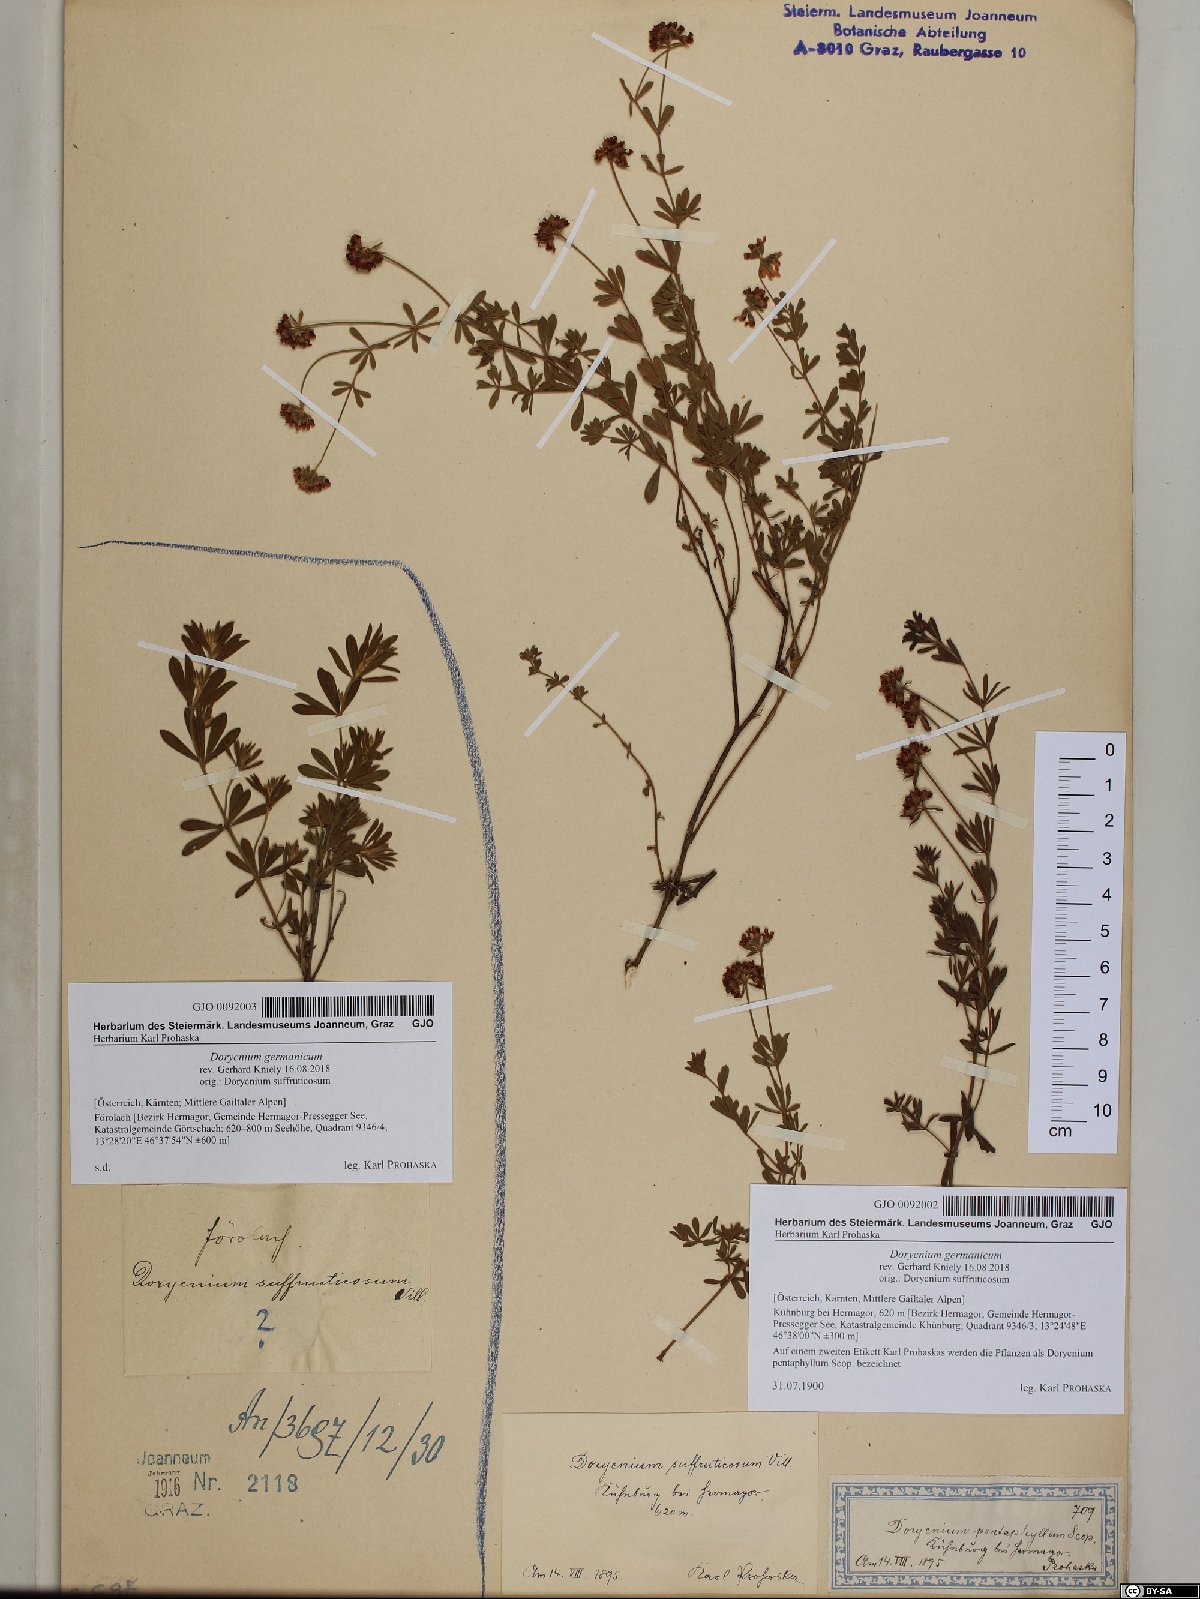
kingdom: Plantae
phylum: Tracheophyta
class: Magnoliopsida
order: Fabales
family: Fabaceae
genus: Lotus
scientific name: Lotus germanicus
